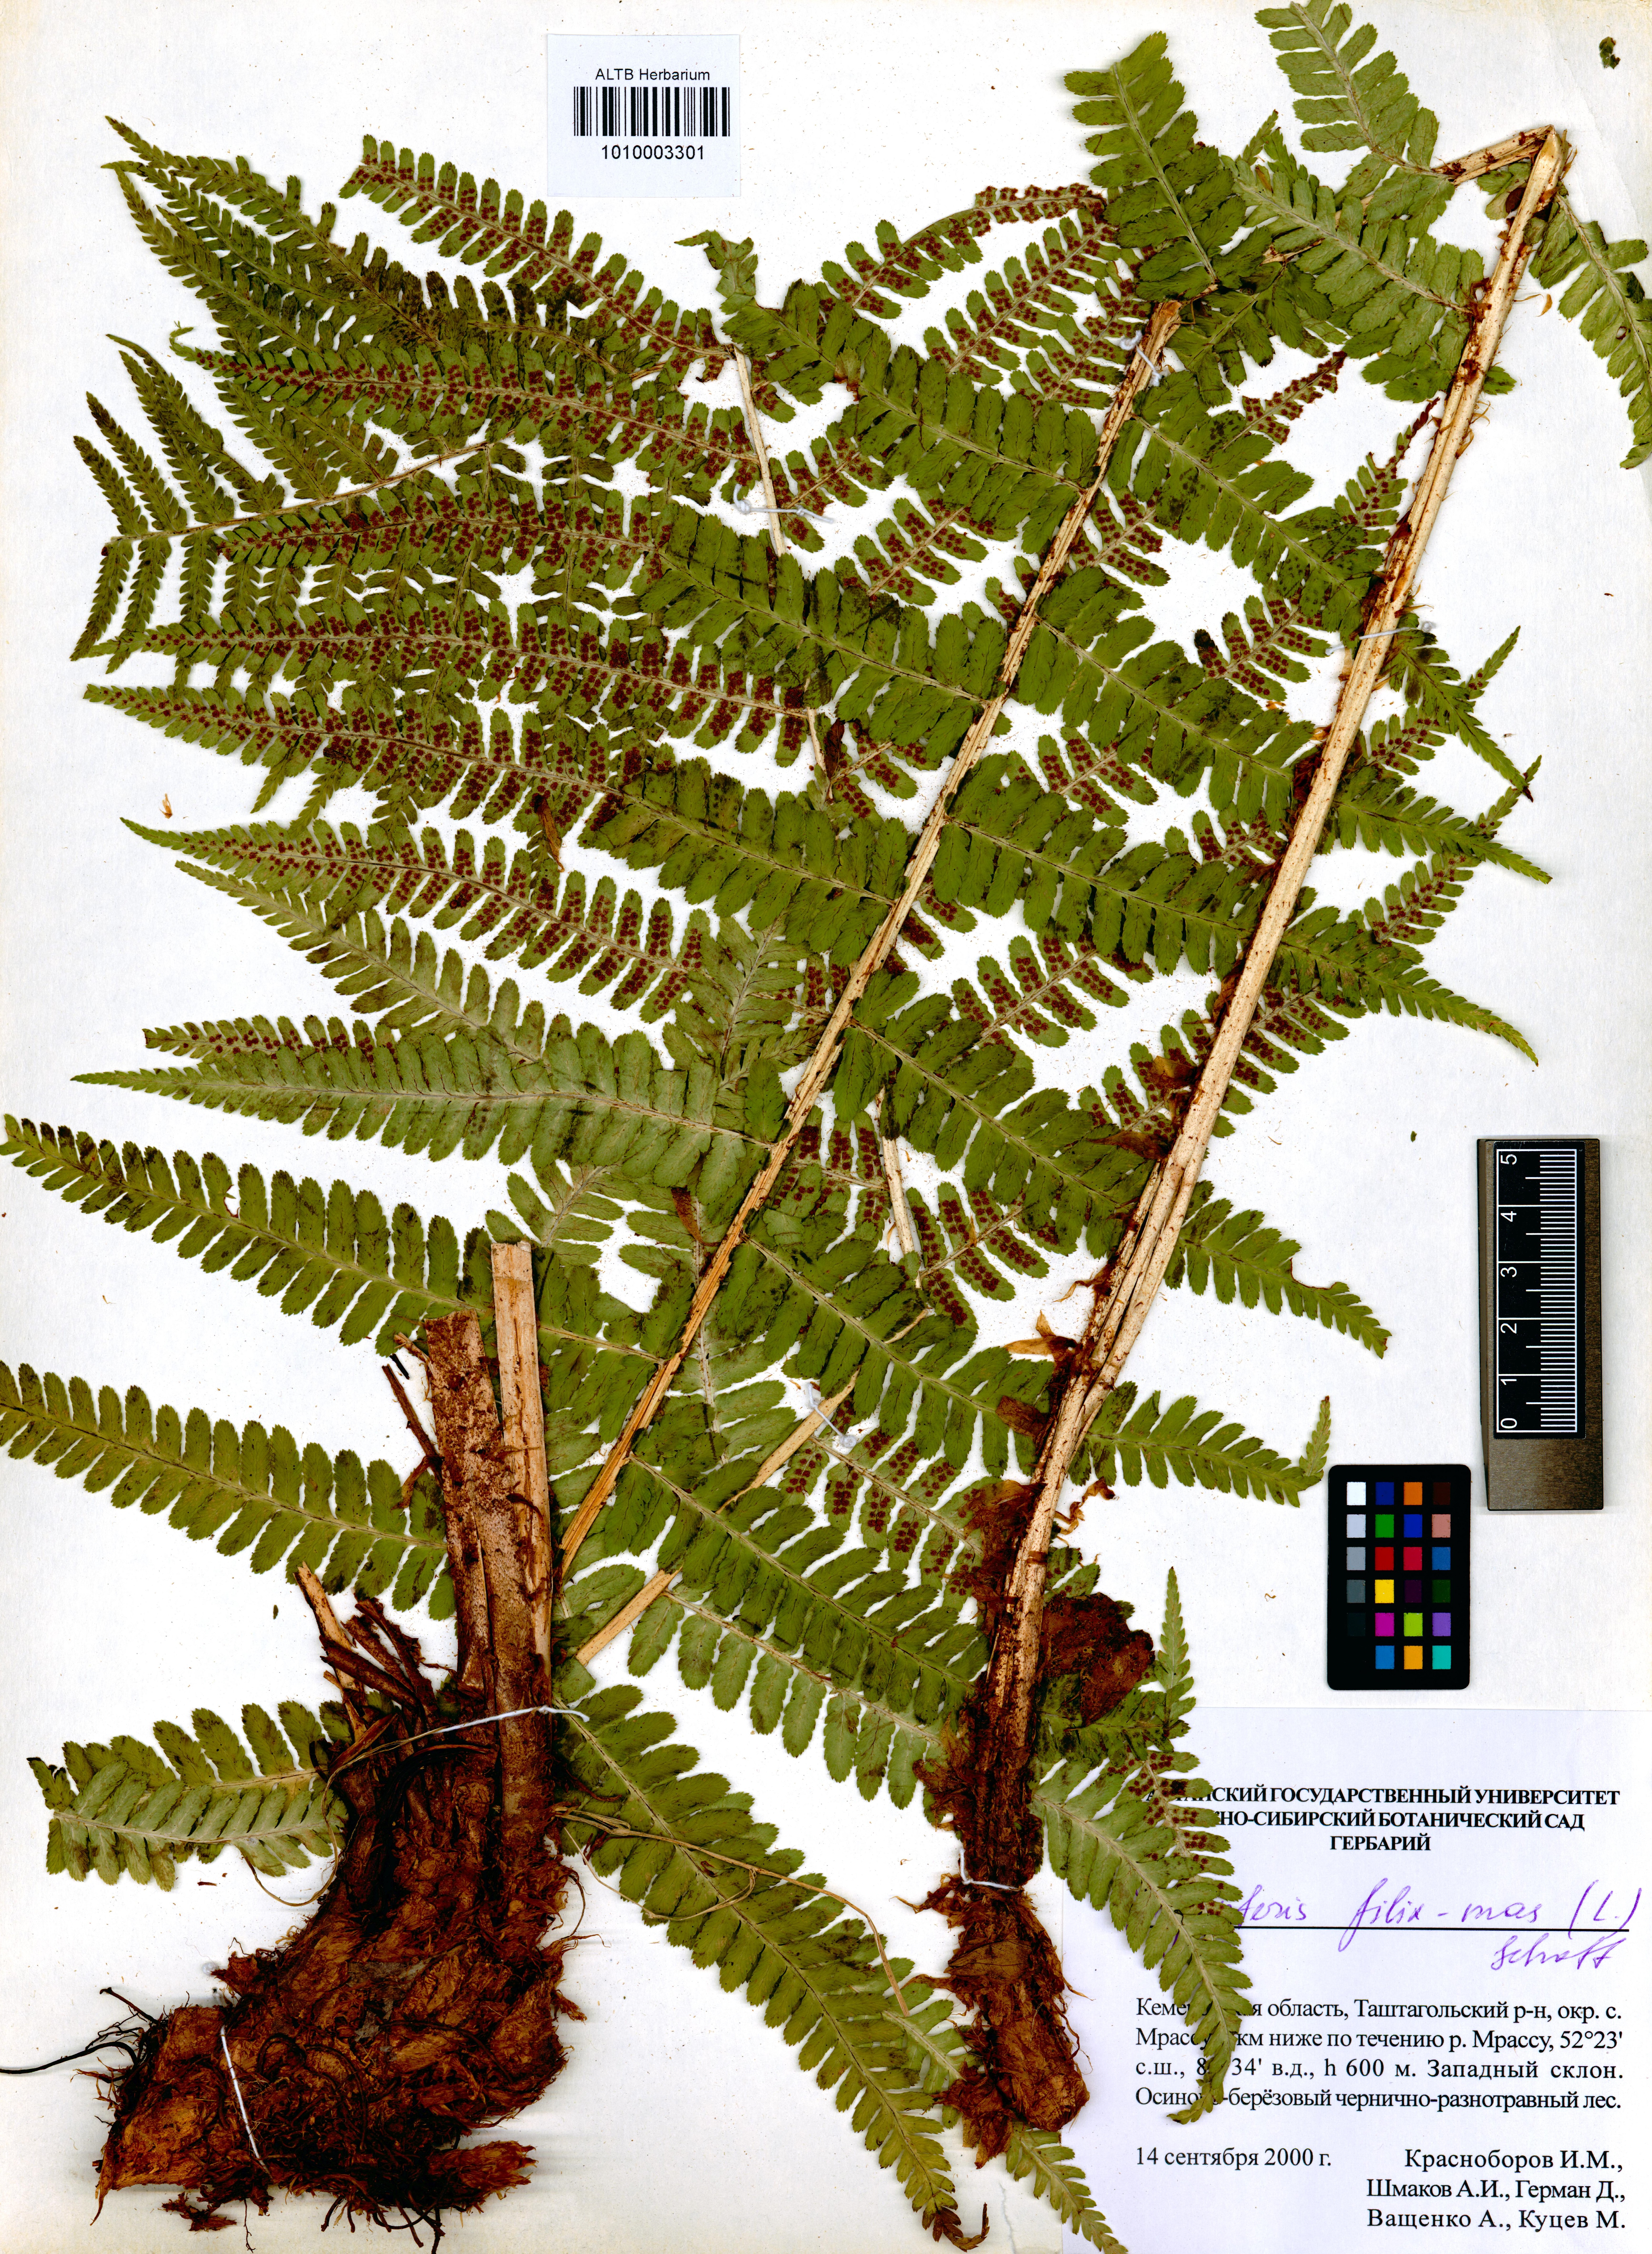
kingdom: Plantae
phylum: Tracheophyta
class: Polypodiopsida
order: Polypodiales
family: Dryopteridaceae
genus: Dryopteris
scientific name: Dryopteris filix-mas
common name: Male fern
